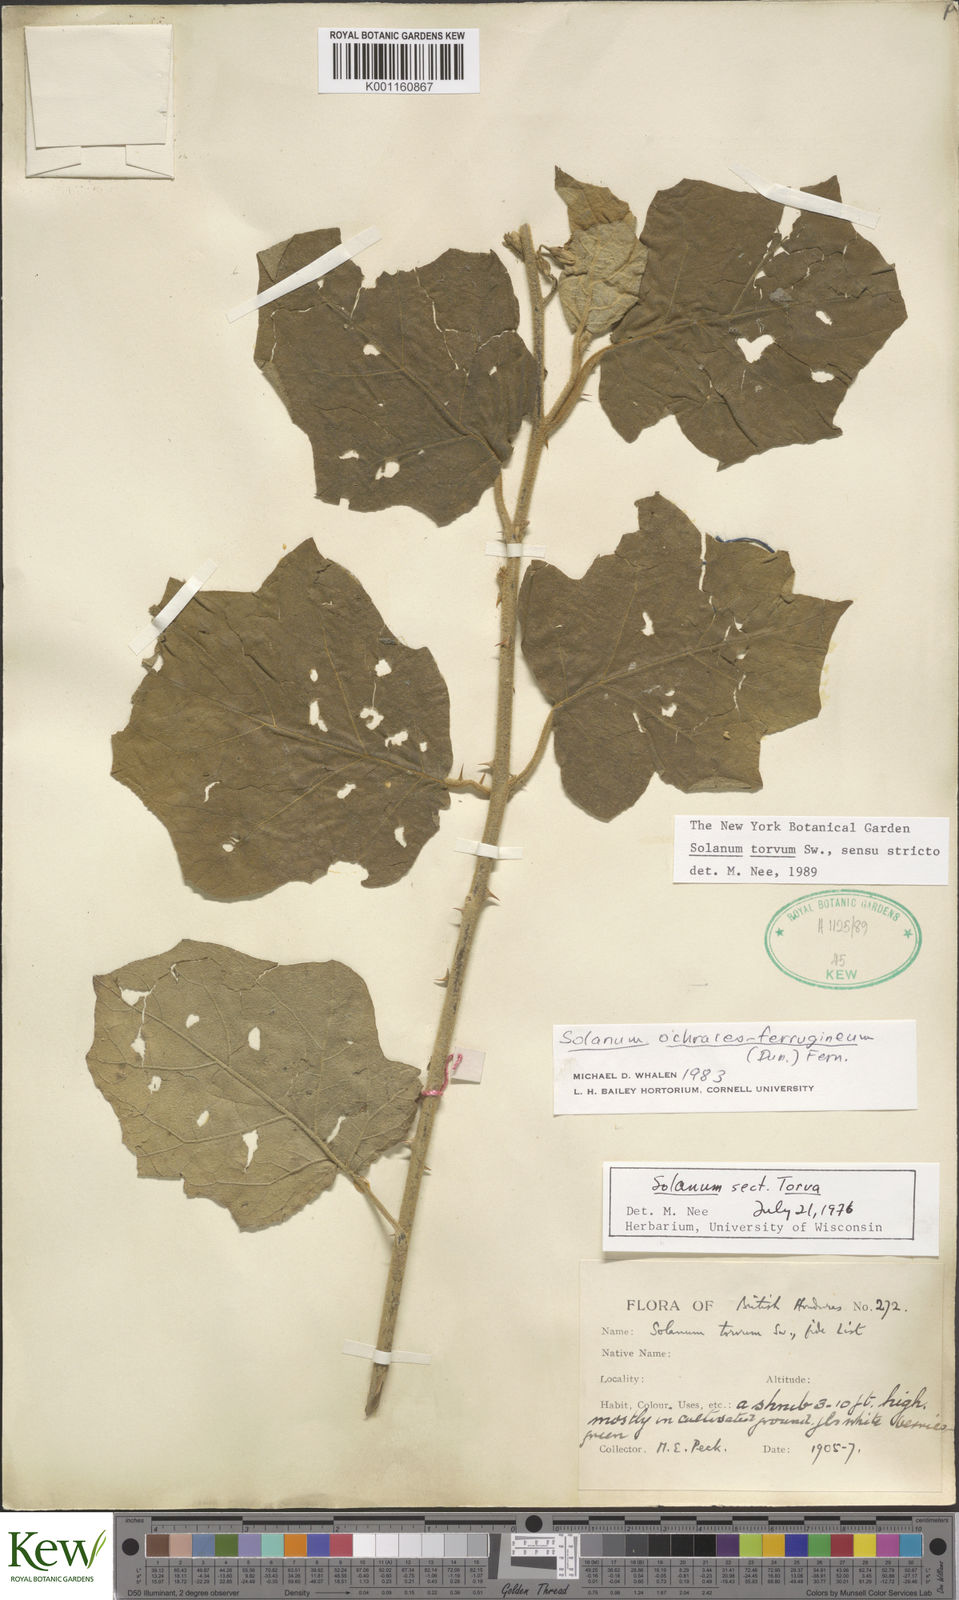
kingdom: Plantae
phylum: Tracheophyta
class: Magnoliopsida
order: Solanales
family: Solanaceae
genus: Solanum
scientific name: Solanum torvum
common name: Turkey berry
